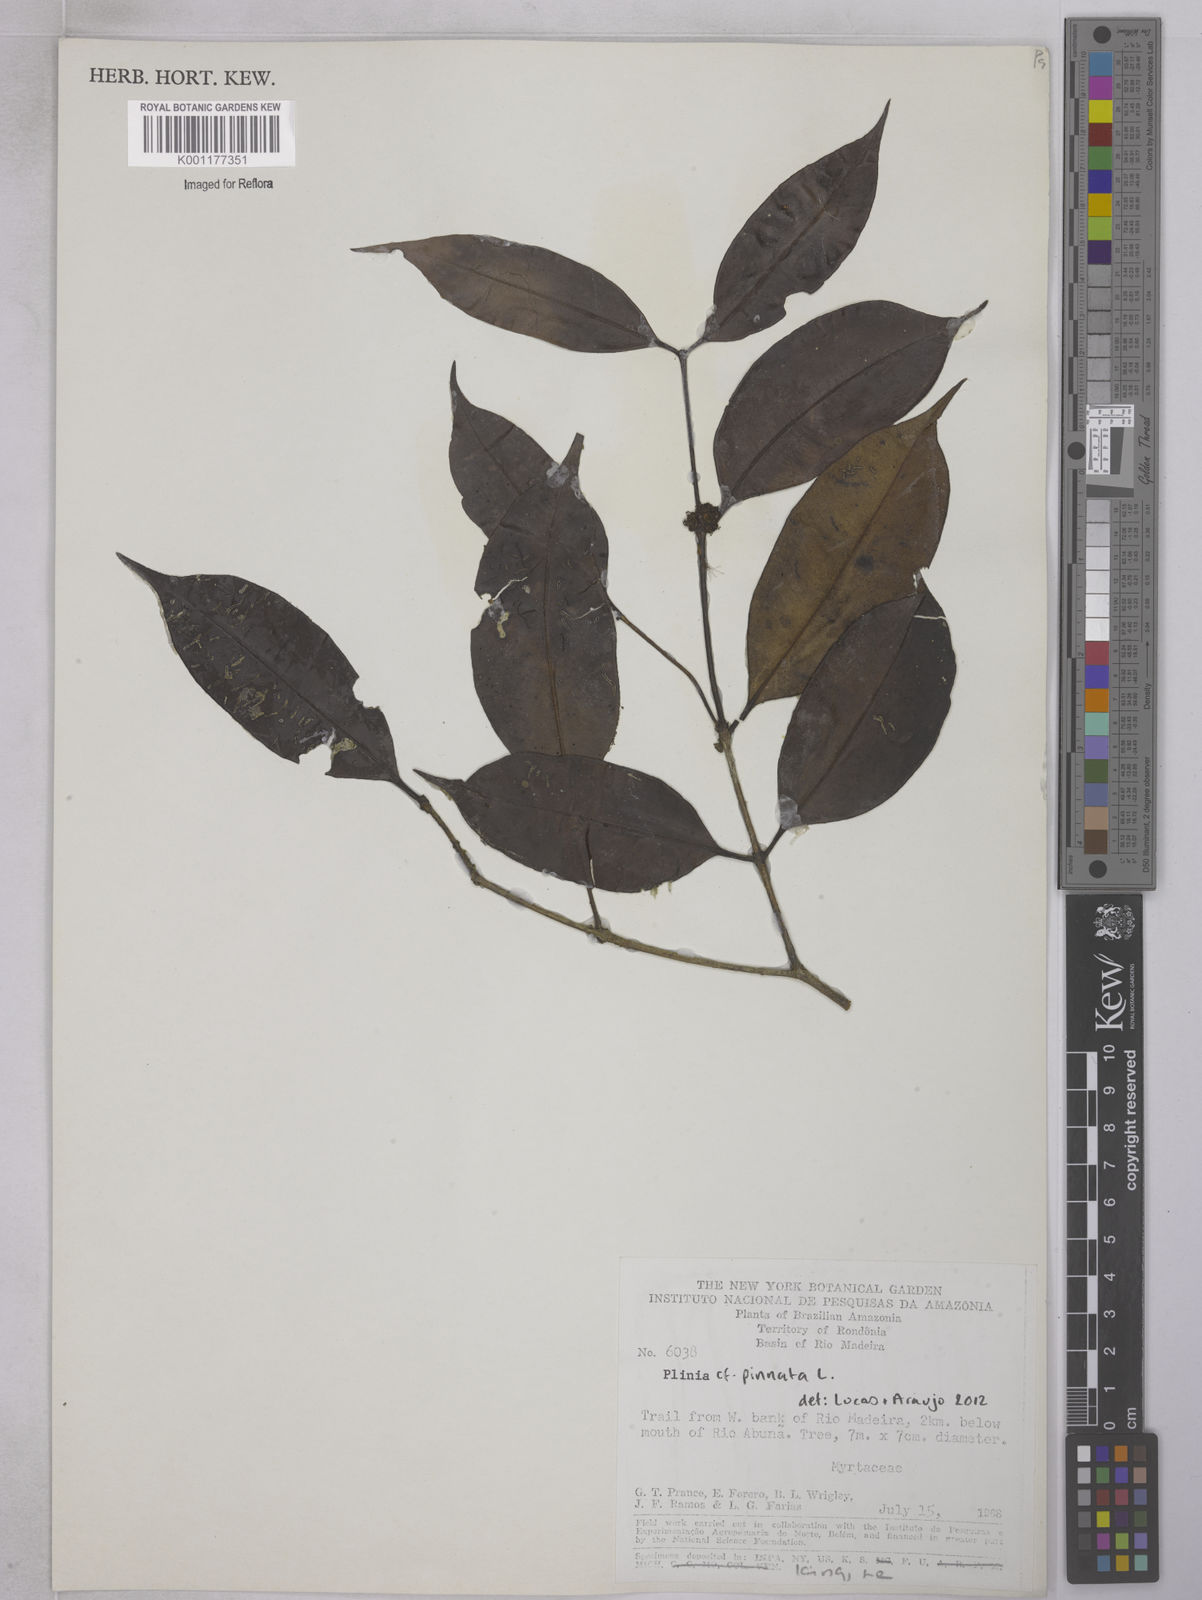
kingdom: Plantae
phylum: Tracheophyta
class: Magnoliopsida
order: Myrtales
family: Myrtaceae
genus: Neomitranthes
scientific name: Neomitranthes stictophylla
